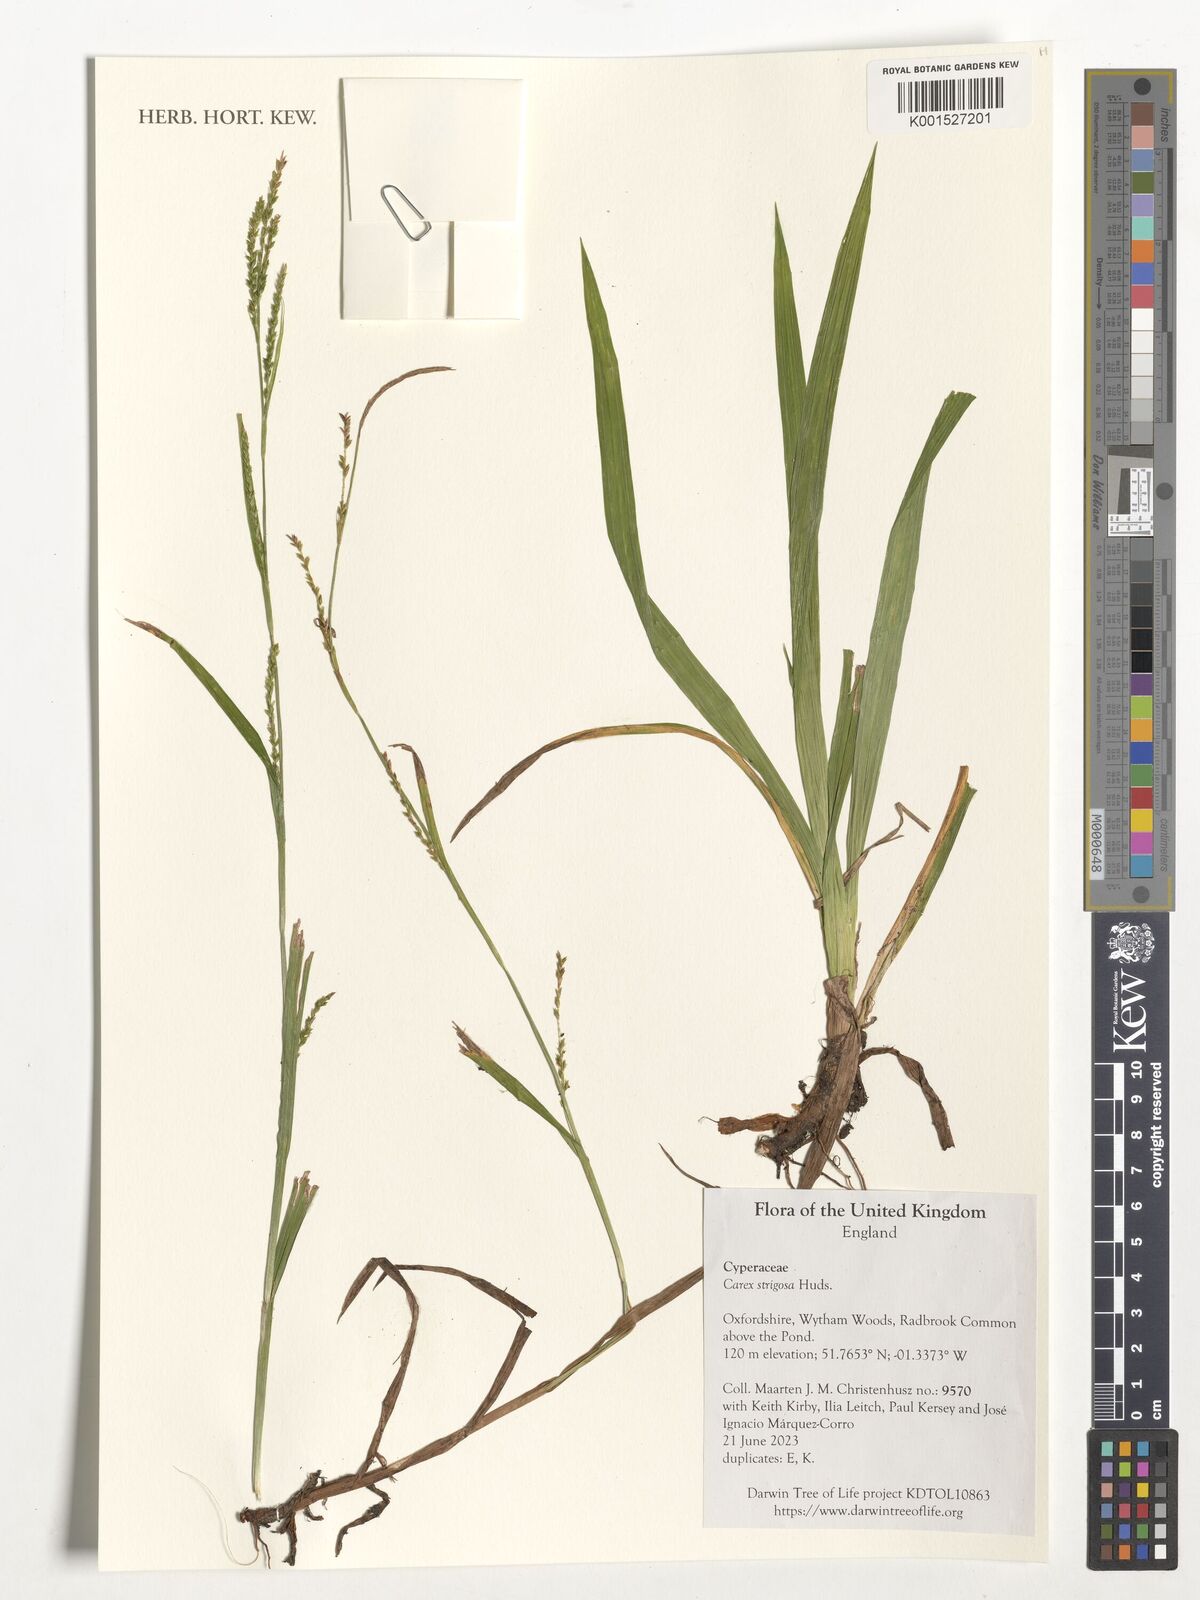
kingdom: Plantae
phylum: Tracheophyta
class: Liliopsida
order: Poales
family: Cyperaceae
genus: Carex
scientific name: Carex strigosa
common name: Thin-spiked wood-sedge
